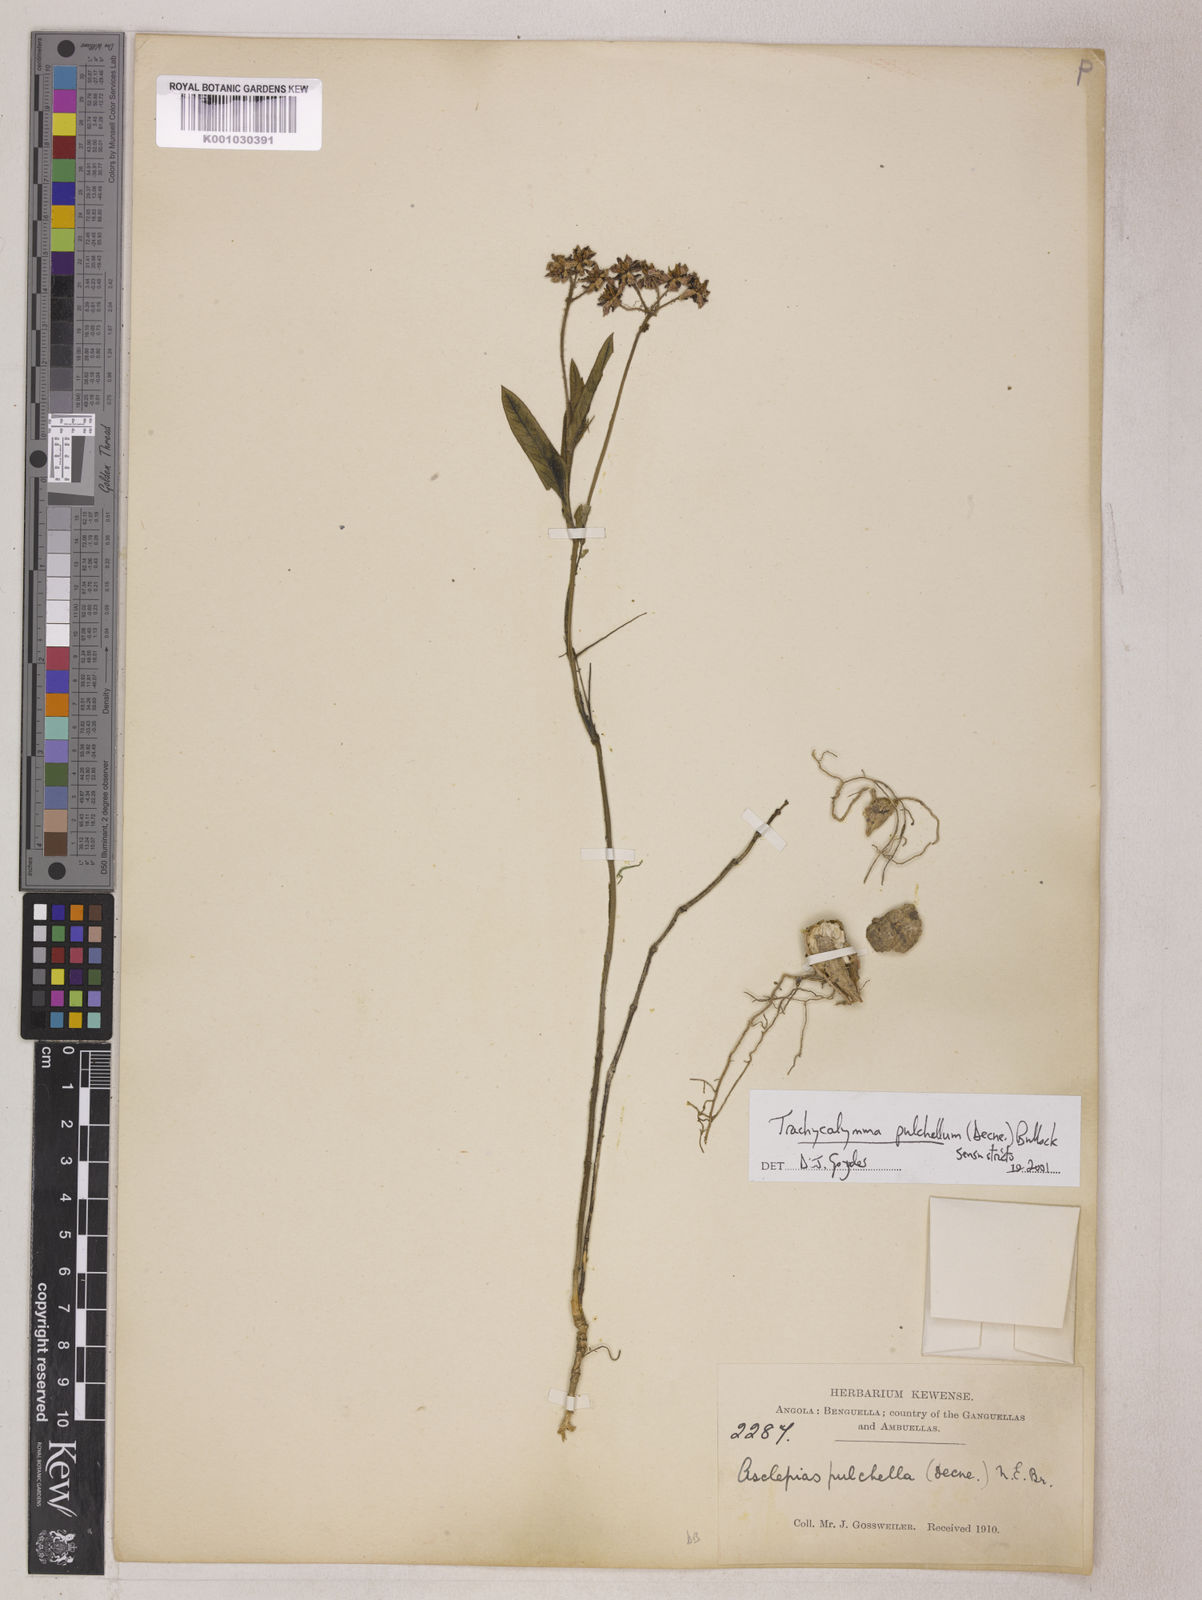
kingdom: Plantae
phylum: Tracheophyta
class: Magnoliopsida
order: Gentianales
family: Apocynaceae
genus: Asclepias
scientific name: Asclepias ameliae
